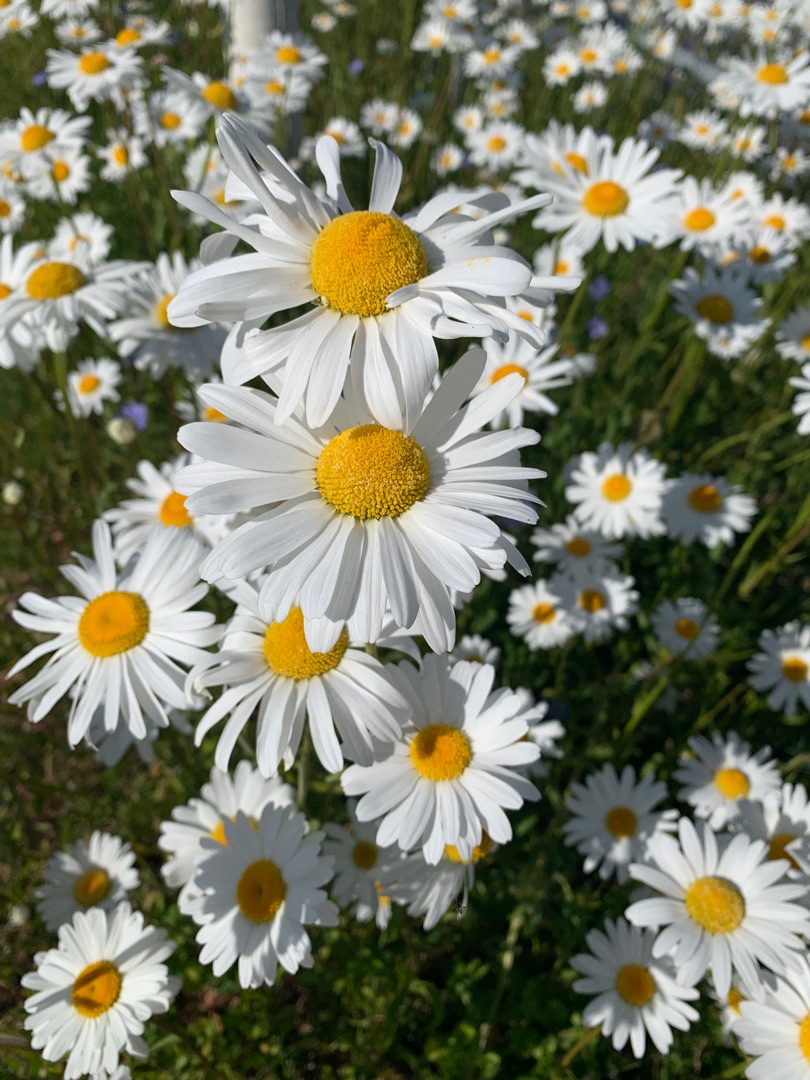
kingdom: Plantae
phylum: Tracheophyta
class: Magnoliopsida
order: Asterales
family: Asteraceae
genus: Leucanthemum
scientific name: Leucanthemum vulgare
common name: Hvid okseøje
